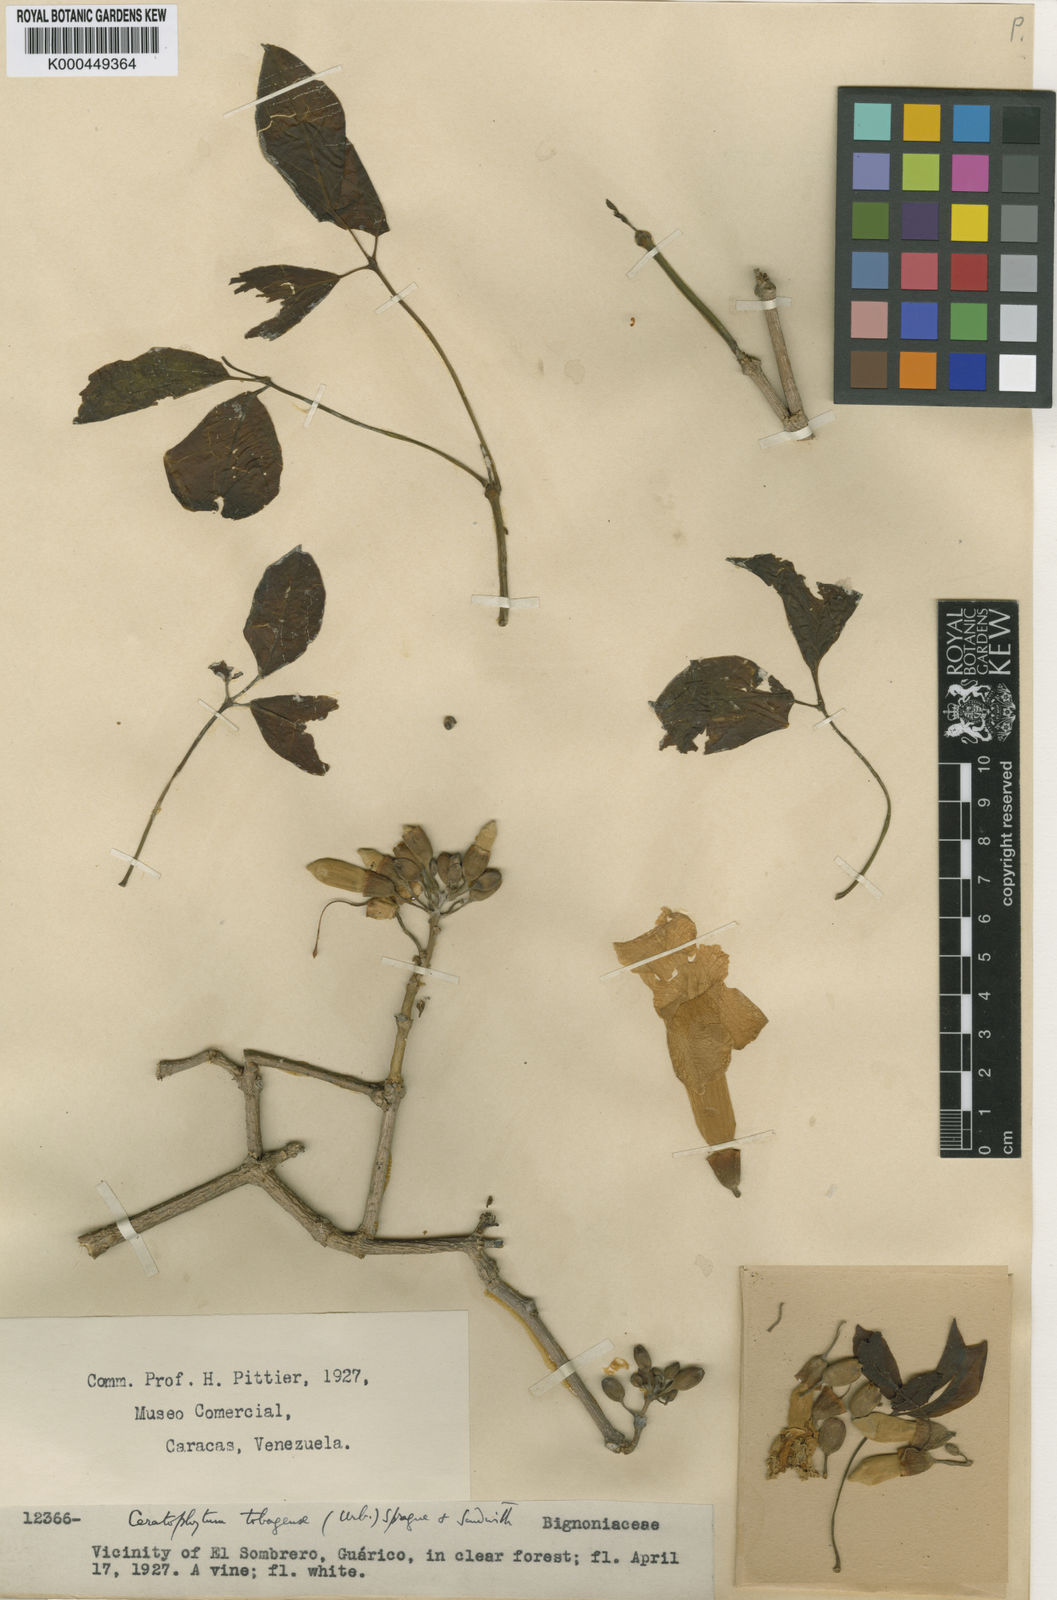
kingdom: Plantae
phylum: Tracheophyta
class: Magnoliopsida
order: Lamiales
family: Bignoniaceae
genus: Tanaecium
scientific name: Tanaecium tetragonolobum
